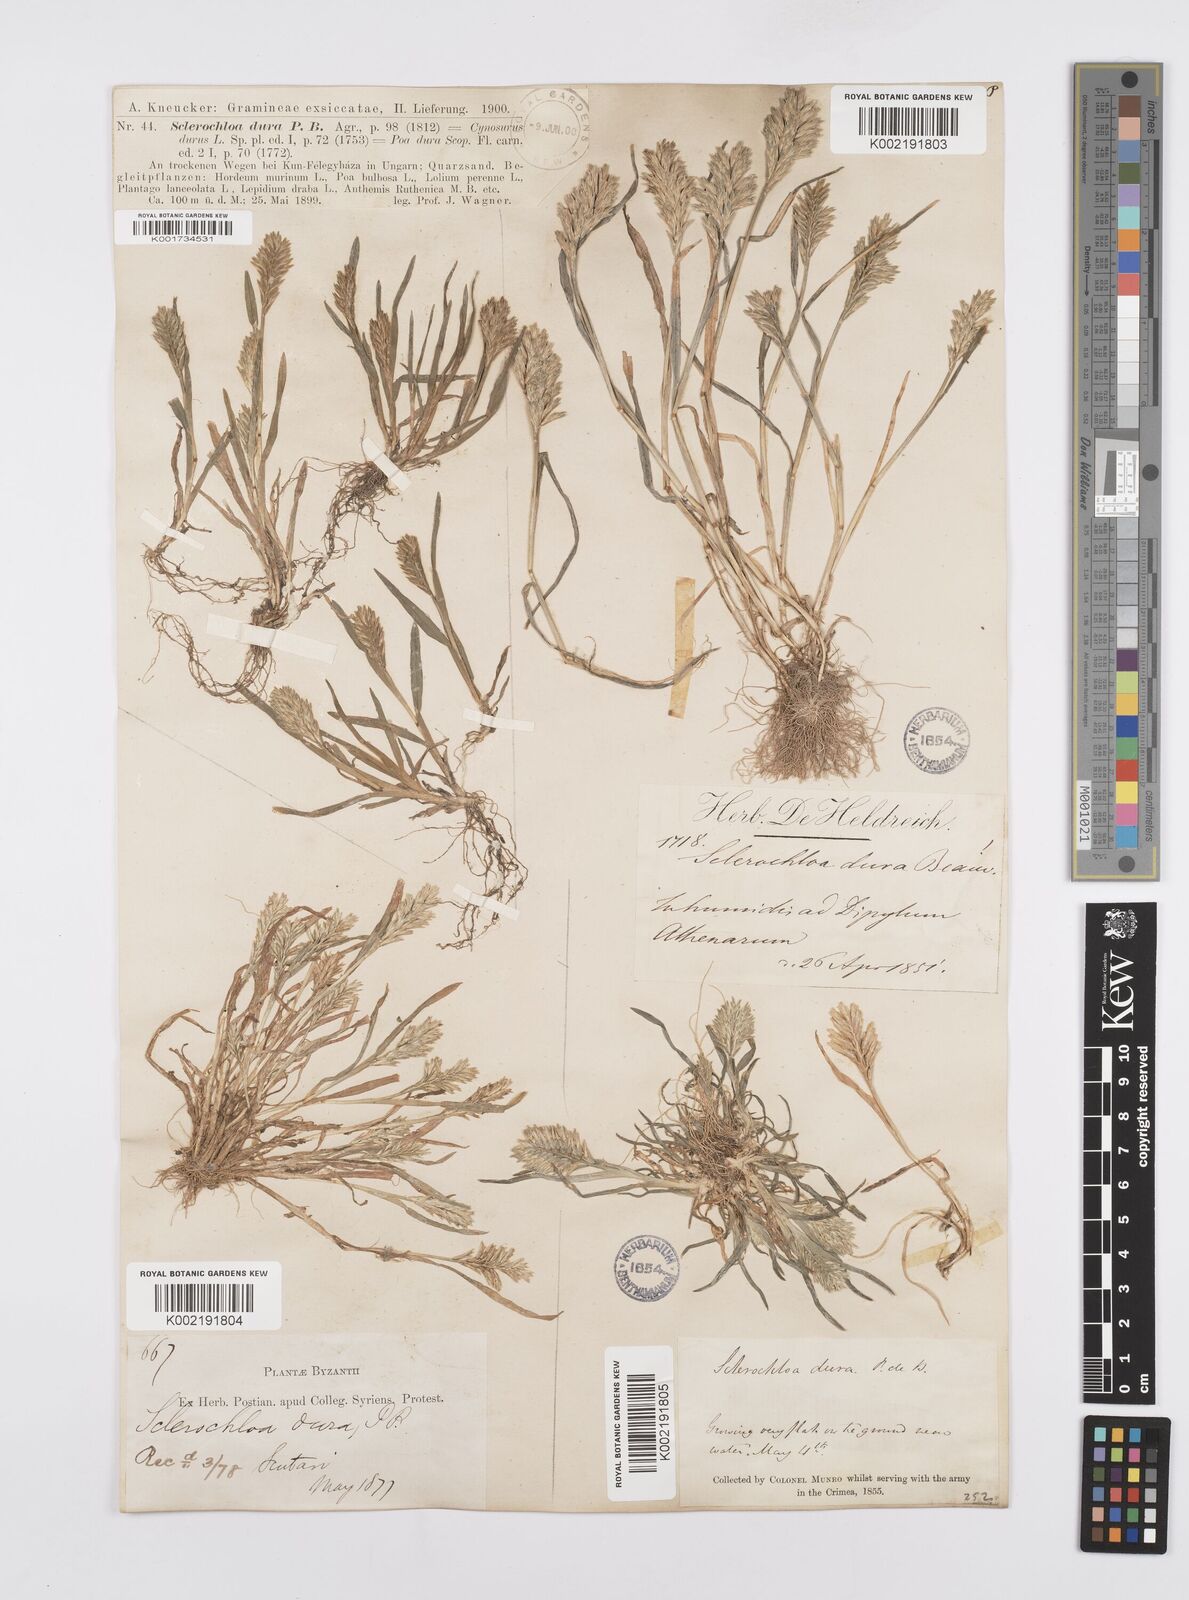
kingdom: Plantae
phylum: Tracheophyta
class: Liliopsida
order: Poales
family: Poaceae
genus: Sclerochloa
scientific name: Sclerochloa dura
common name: Common hardgrass
